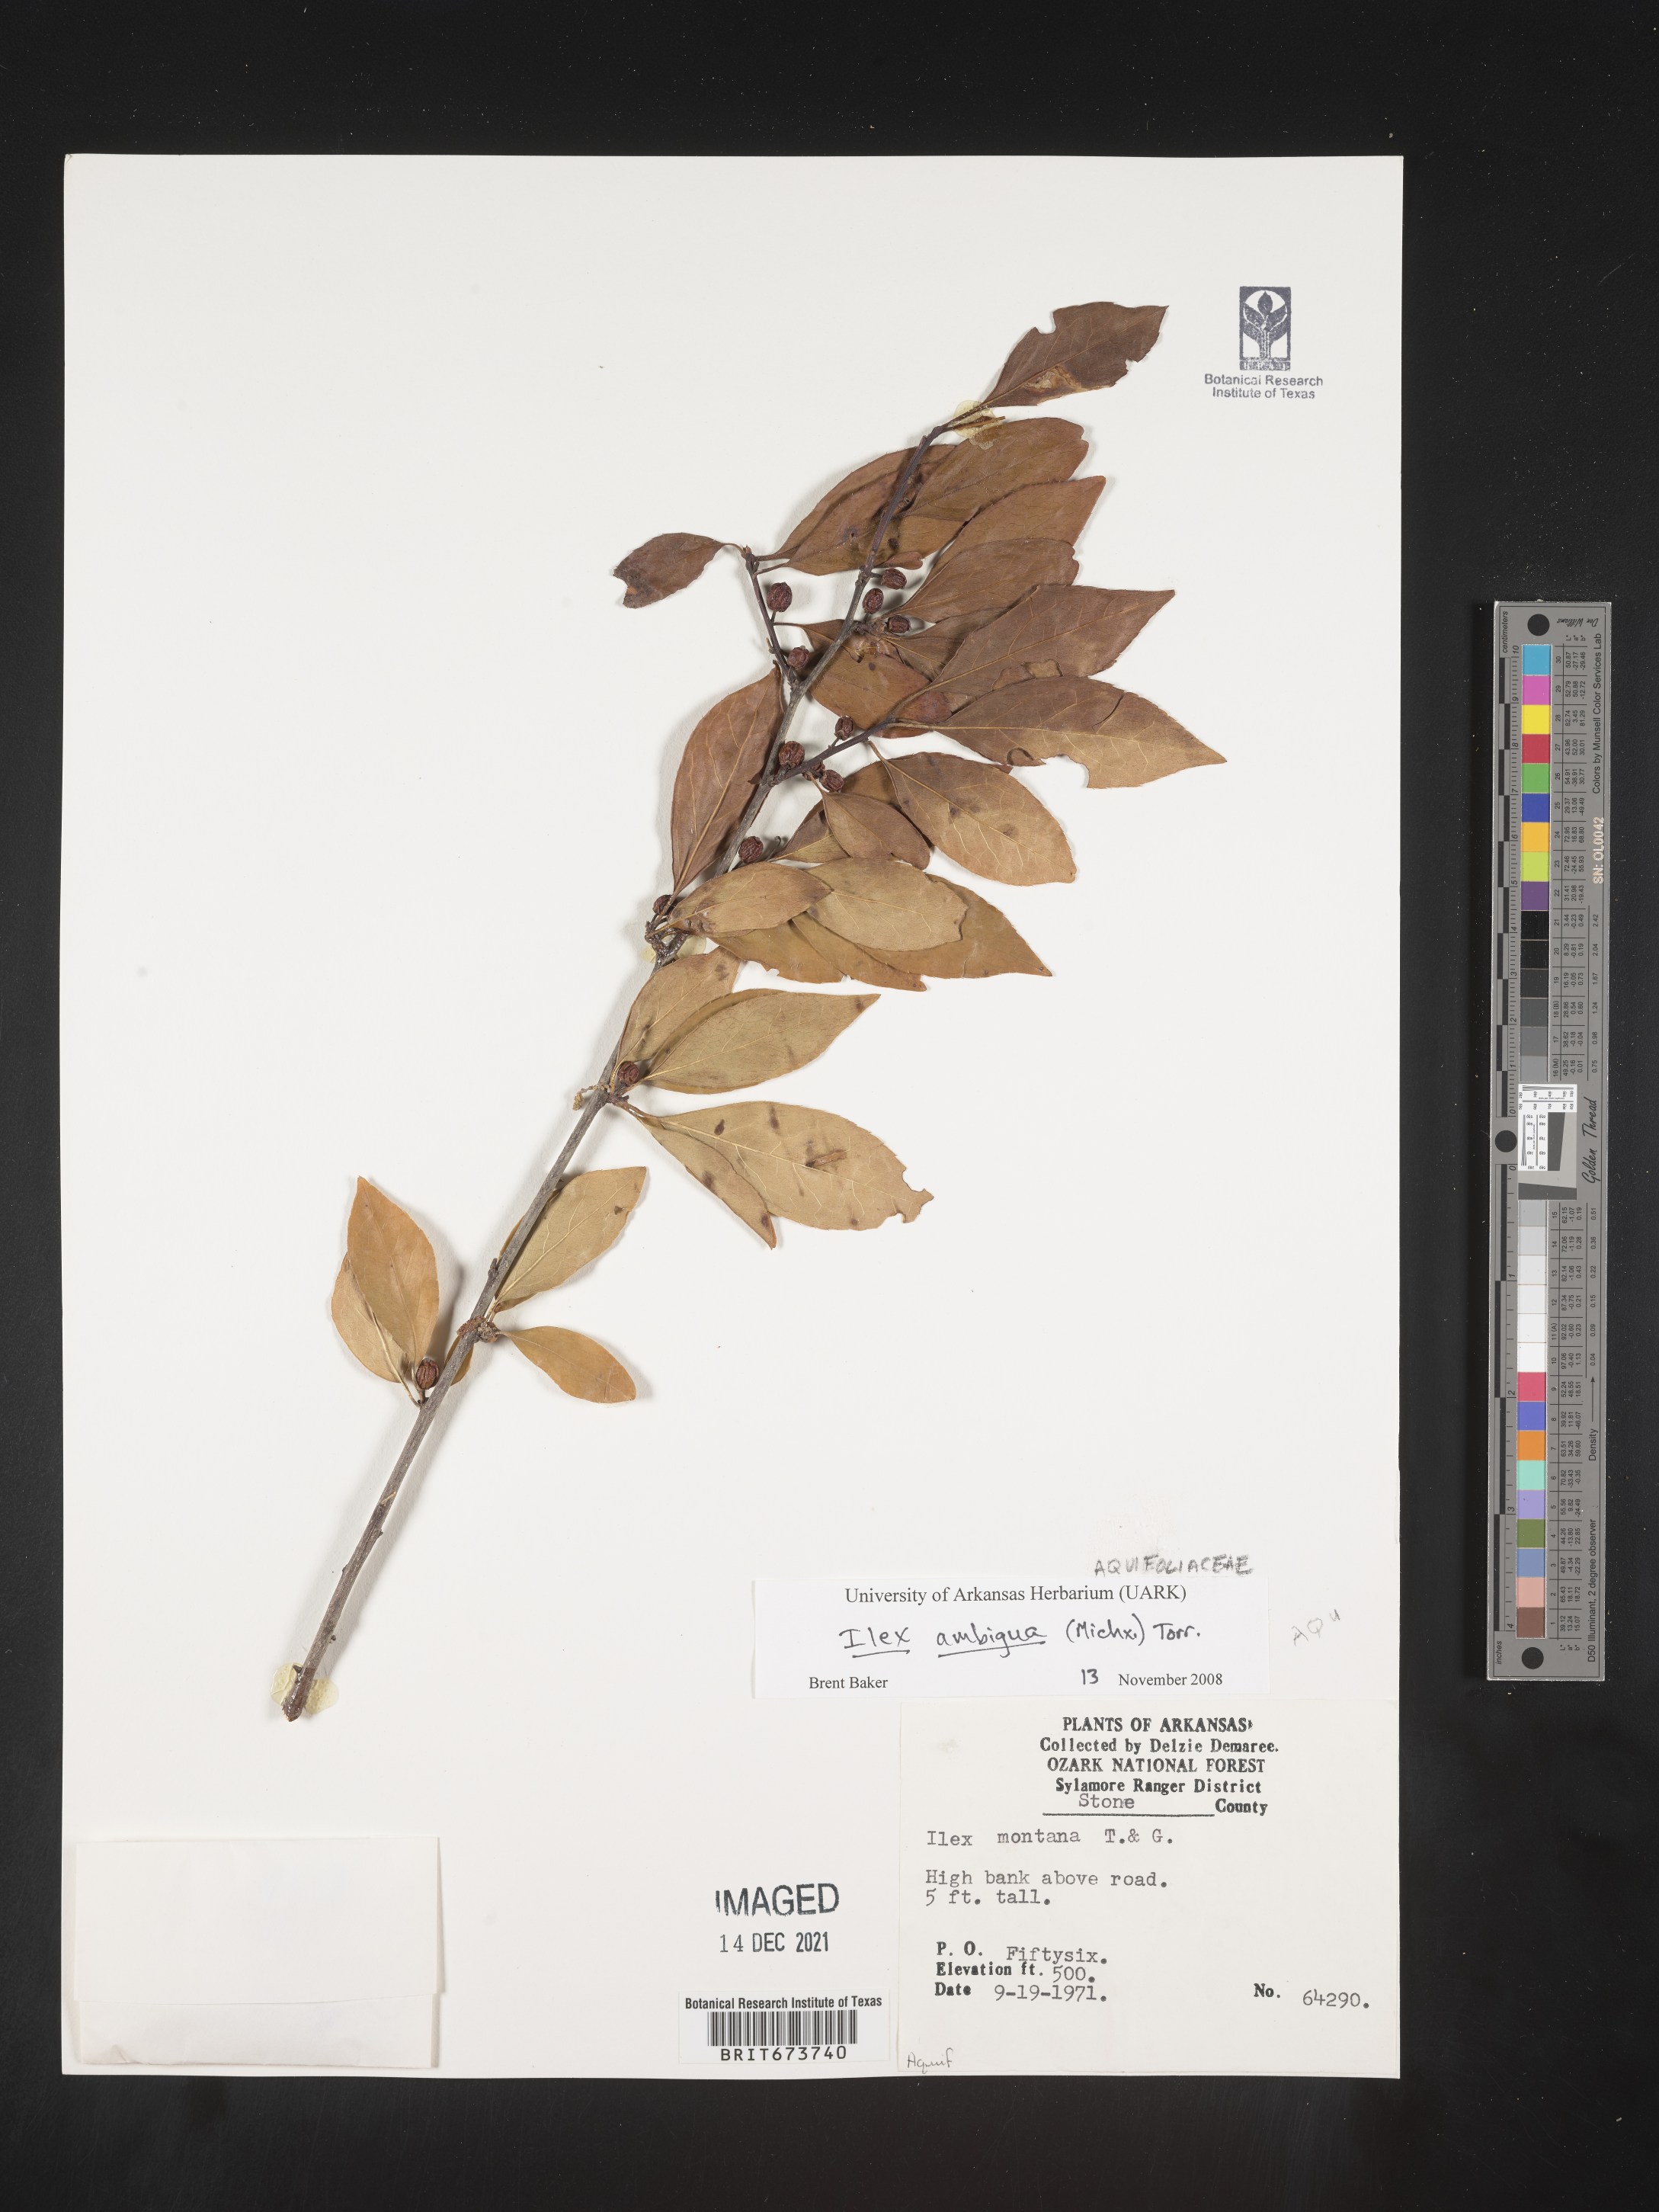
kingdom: Plantae
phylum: Tracheophyta
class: Magnoliopsida
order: Aquifoliales
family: Aquifoliaceae
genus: Ilex
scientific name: Ilex ambigua
